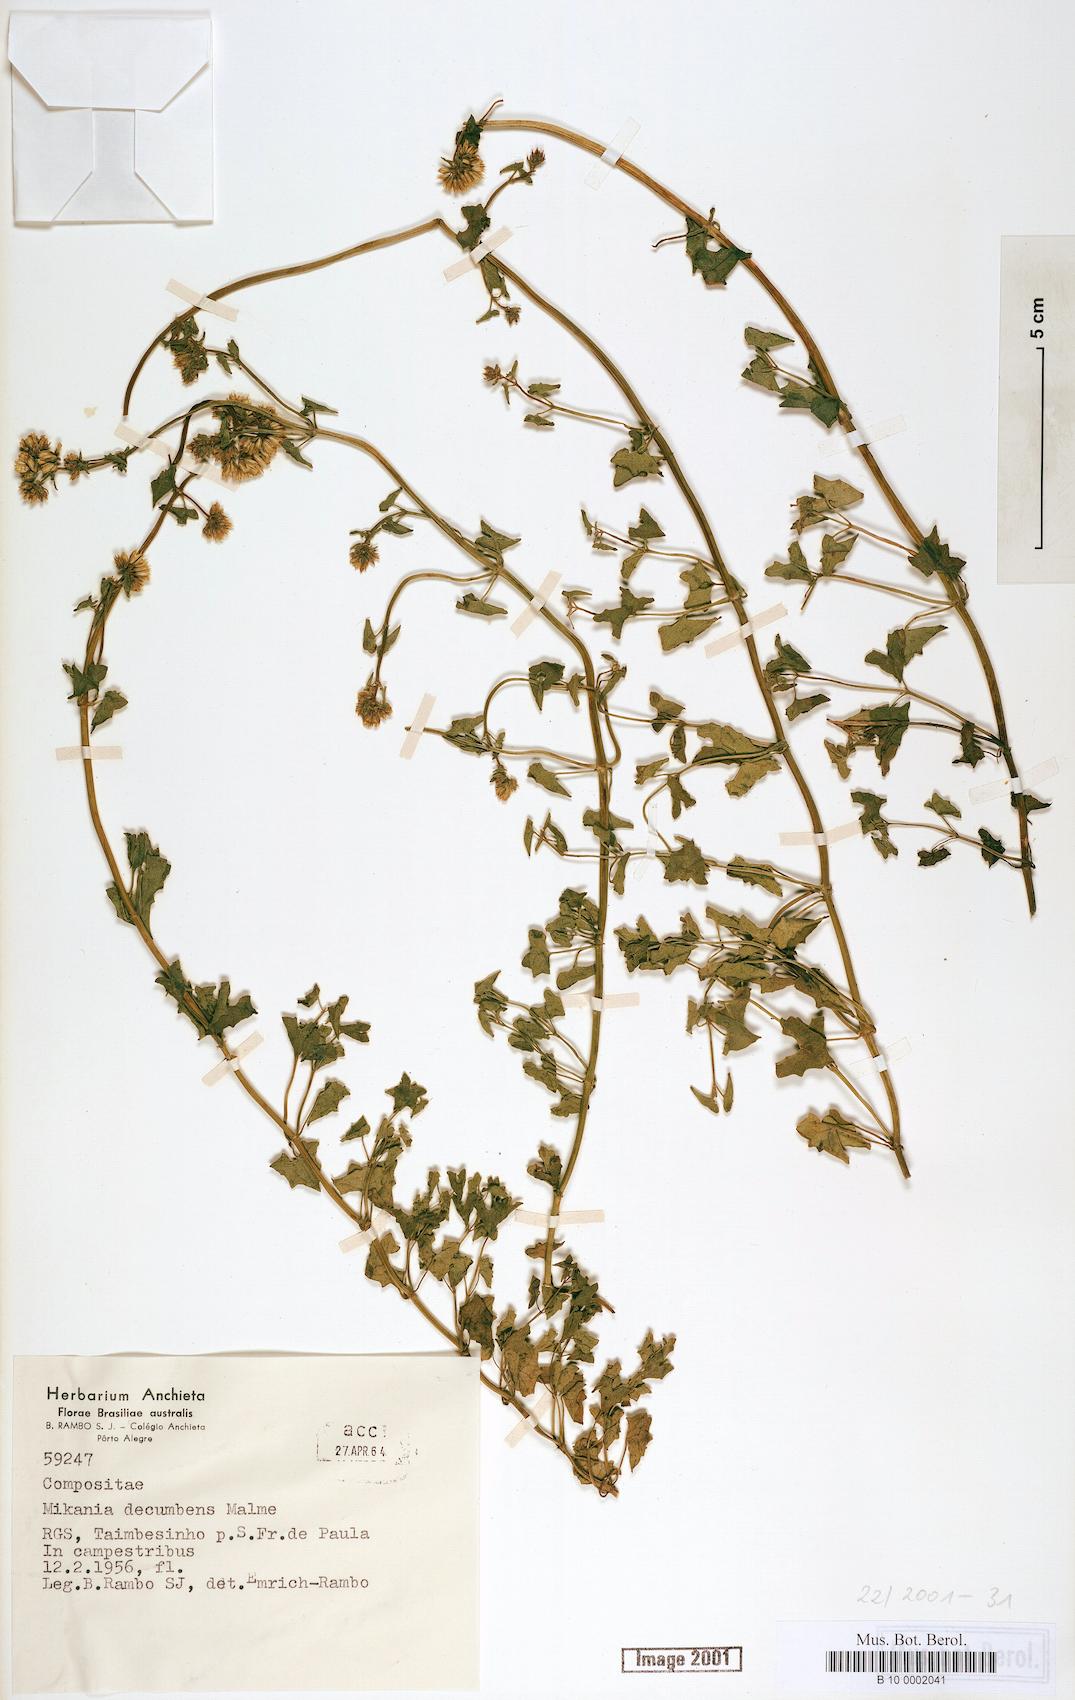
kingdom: Plantae
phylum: Tracheophyta
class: Magnoliopsida
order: Asterales
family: Asteraceae
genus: Mikania
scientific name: Mikania decumbens
